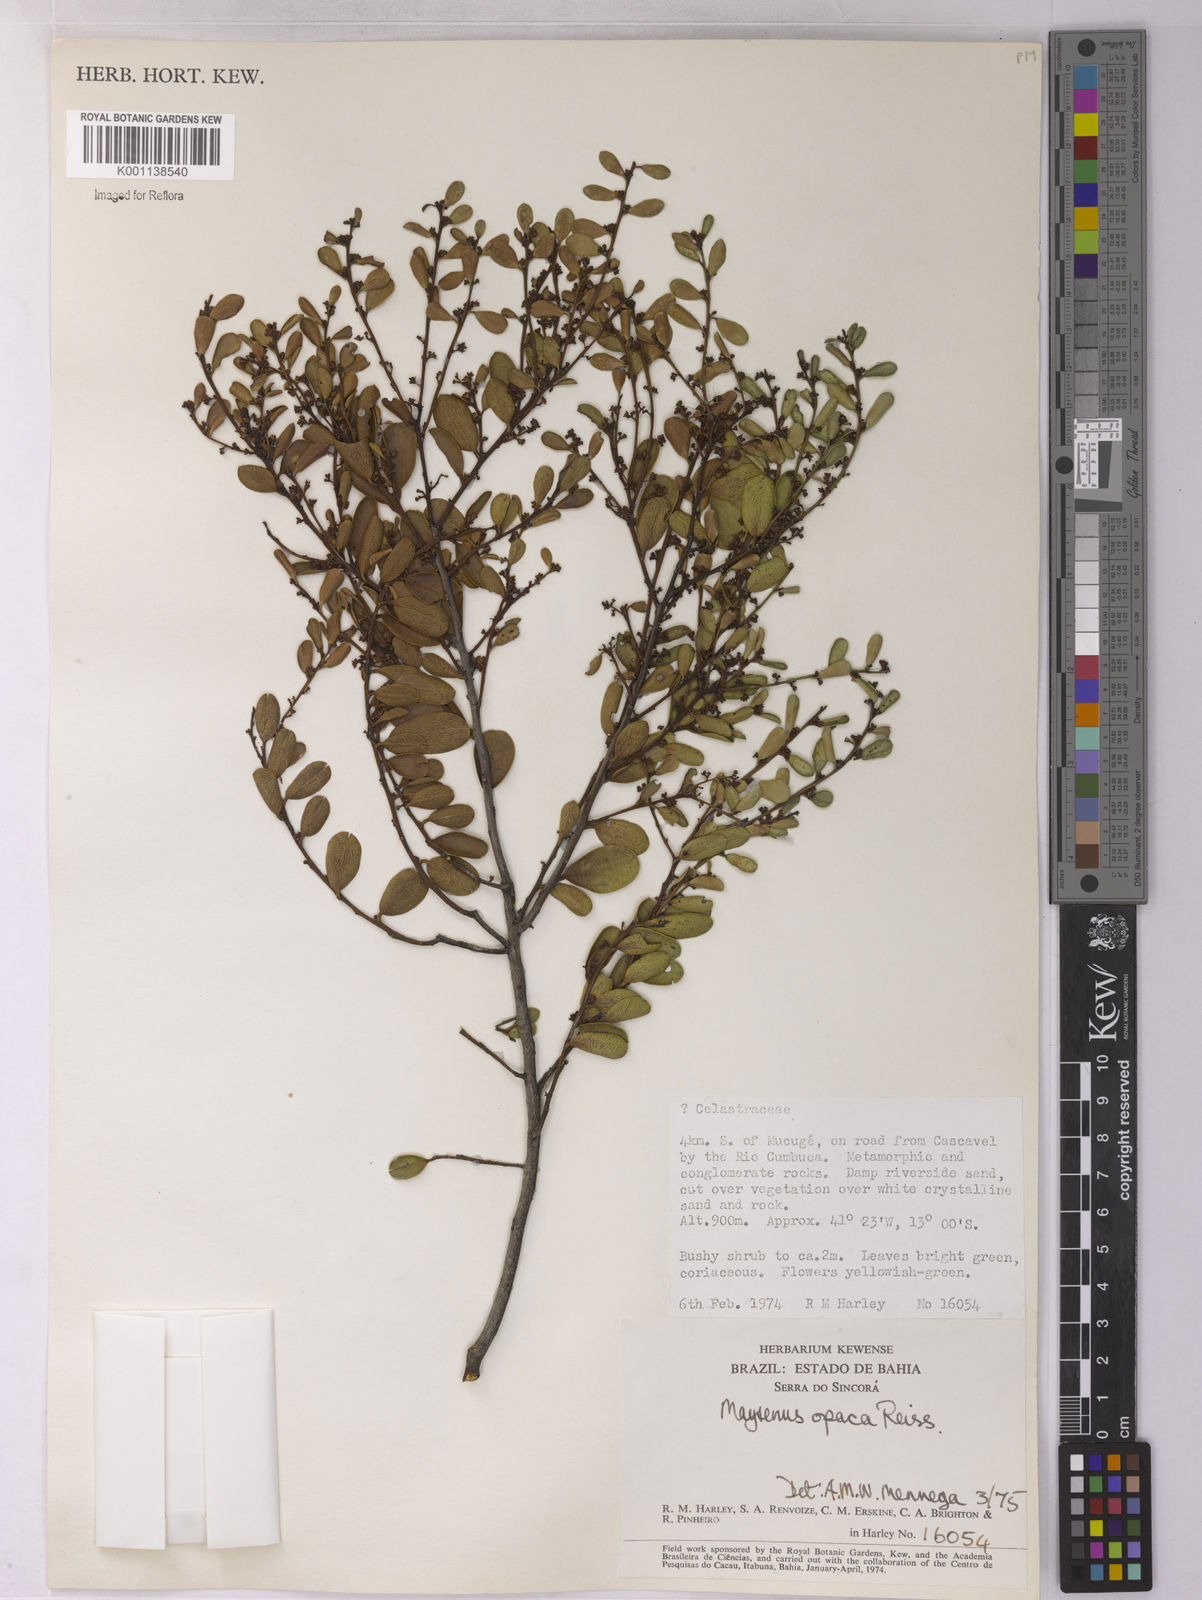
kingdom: Plantae
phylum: Tracheophyta
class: Magnoliopsida
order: Celastrales
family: Celastraceae
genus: Monteverdia
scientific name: Monteverdia opaca
